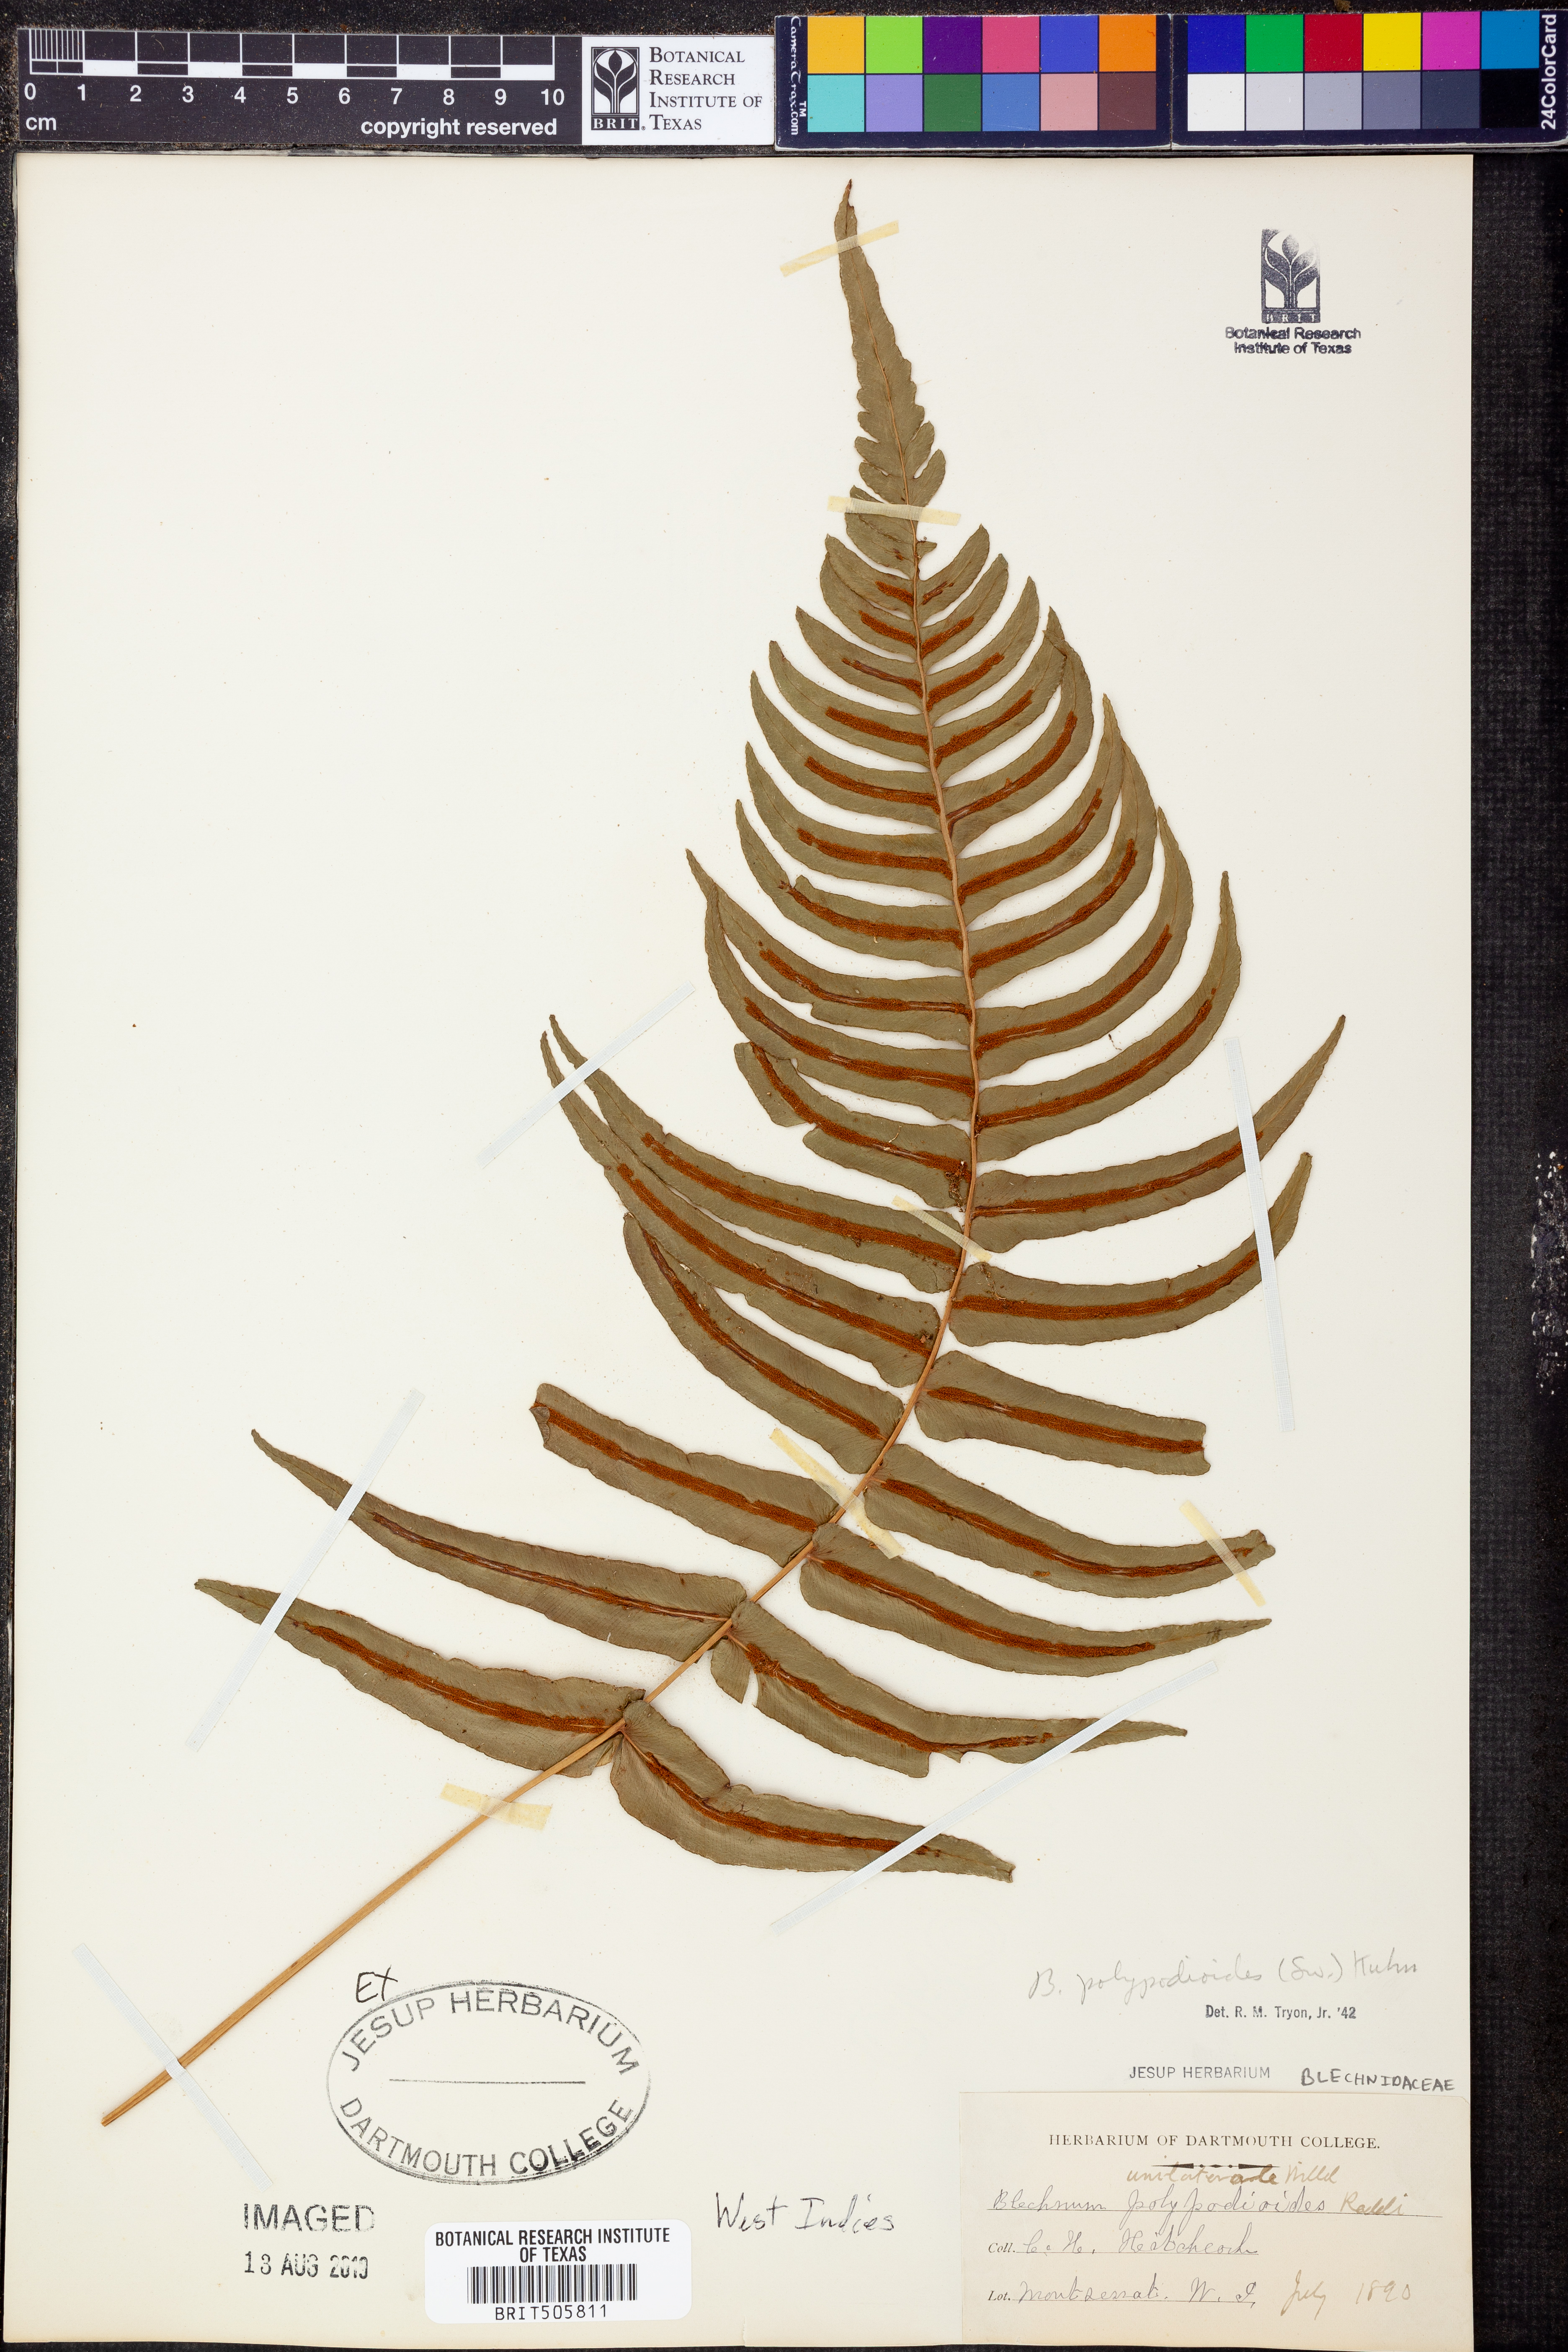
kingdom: Plantae
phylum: Tracheophyta
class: Polypodiopsida
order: Polypodiales
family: Blechnaceae
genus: Blechnum
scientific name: Blechnum polypodioides
